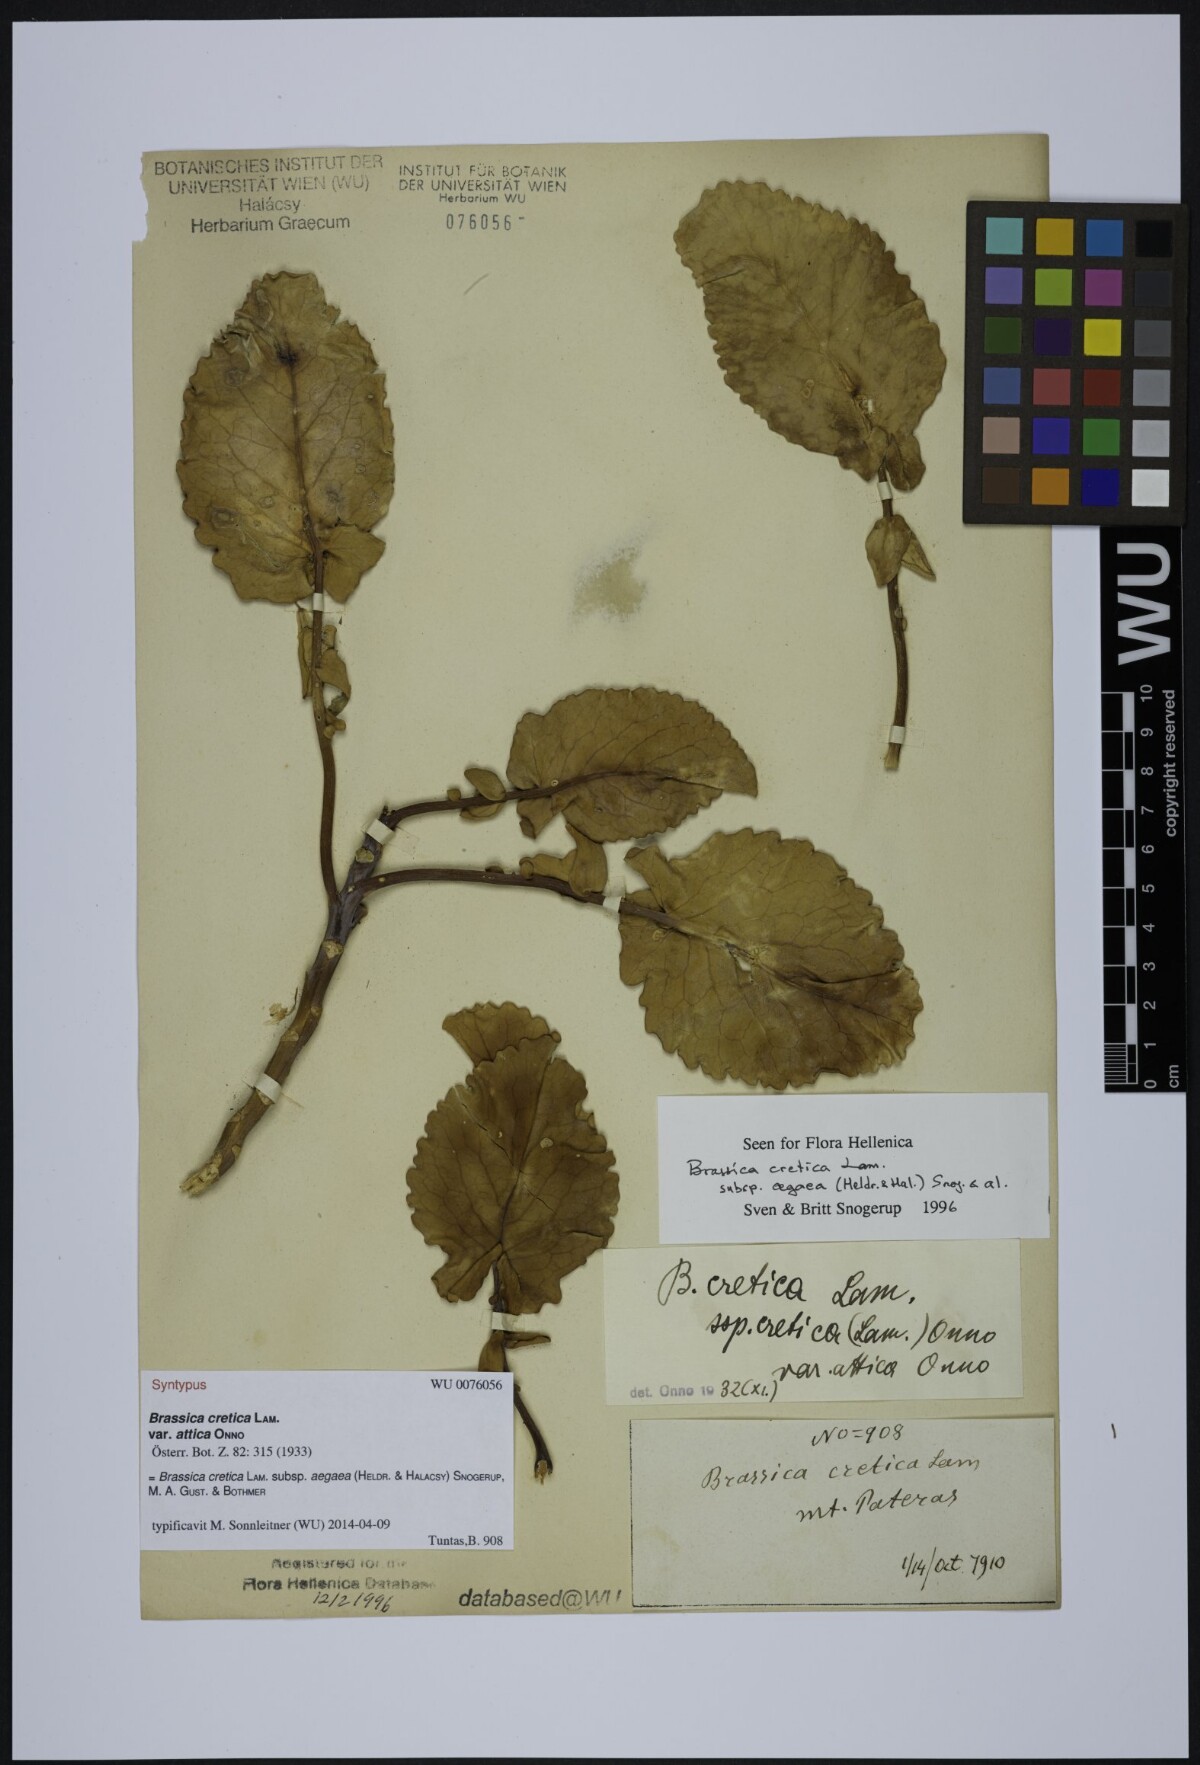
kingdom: Plantae
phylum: Tracheophyta
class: Magnoliopsida
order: Brassicales
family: Brassicaceae
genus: Brassica
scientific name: Brassica cretica
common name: Mustard
